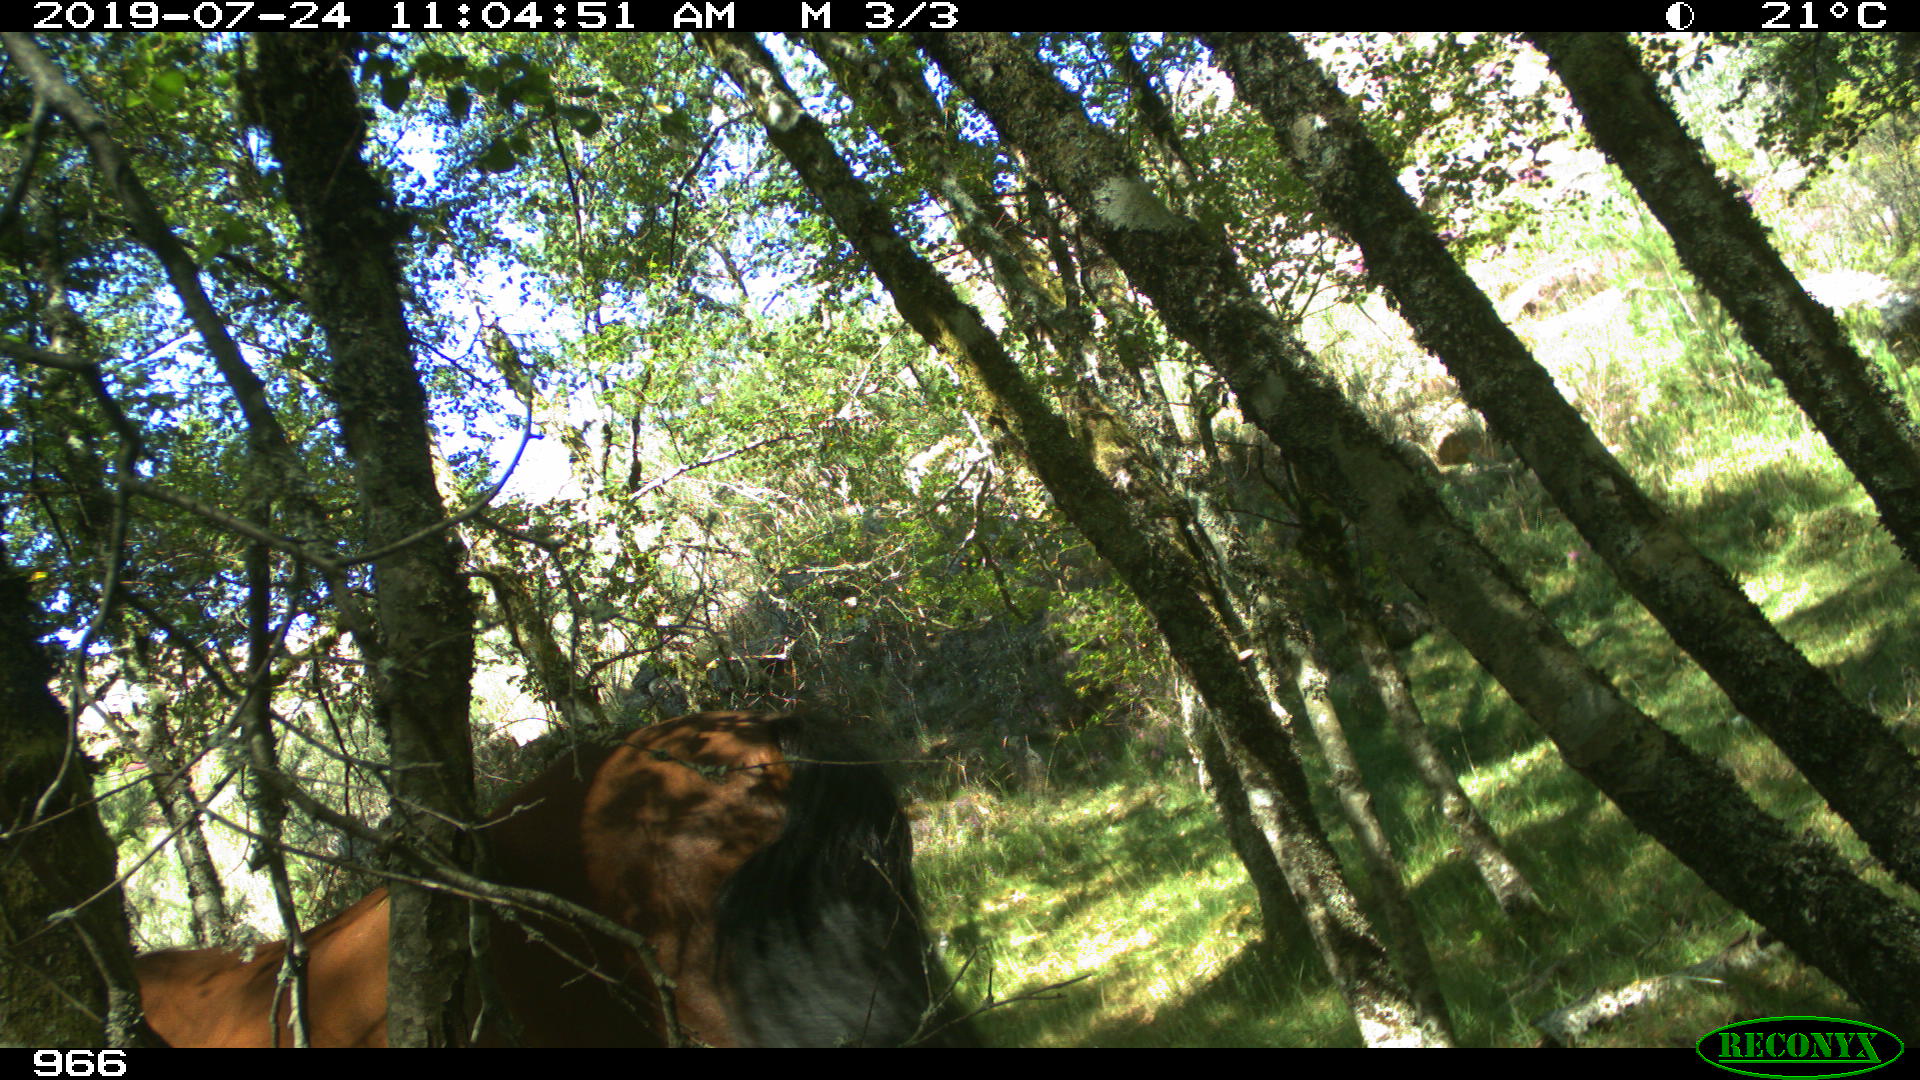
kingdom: Animalia
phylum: Chordata
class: Mammalia
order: Perissodactyla
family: Equidae
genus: Equus
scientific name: Equus caballus
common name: Horse
